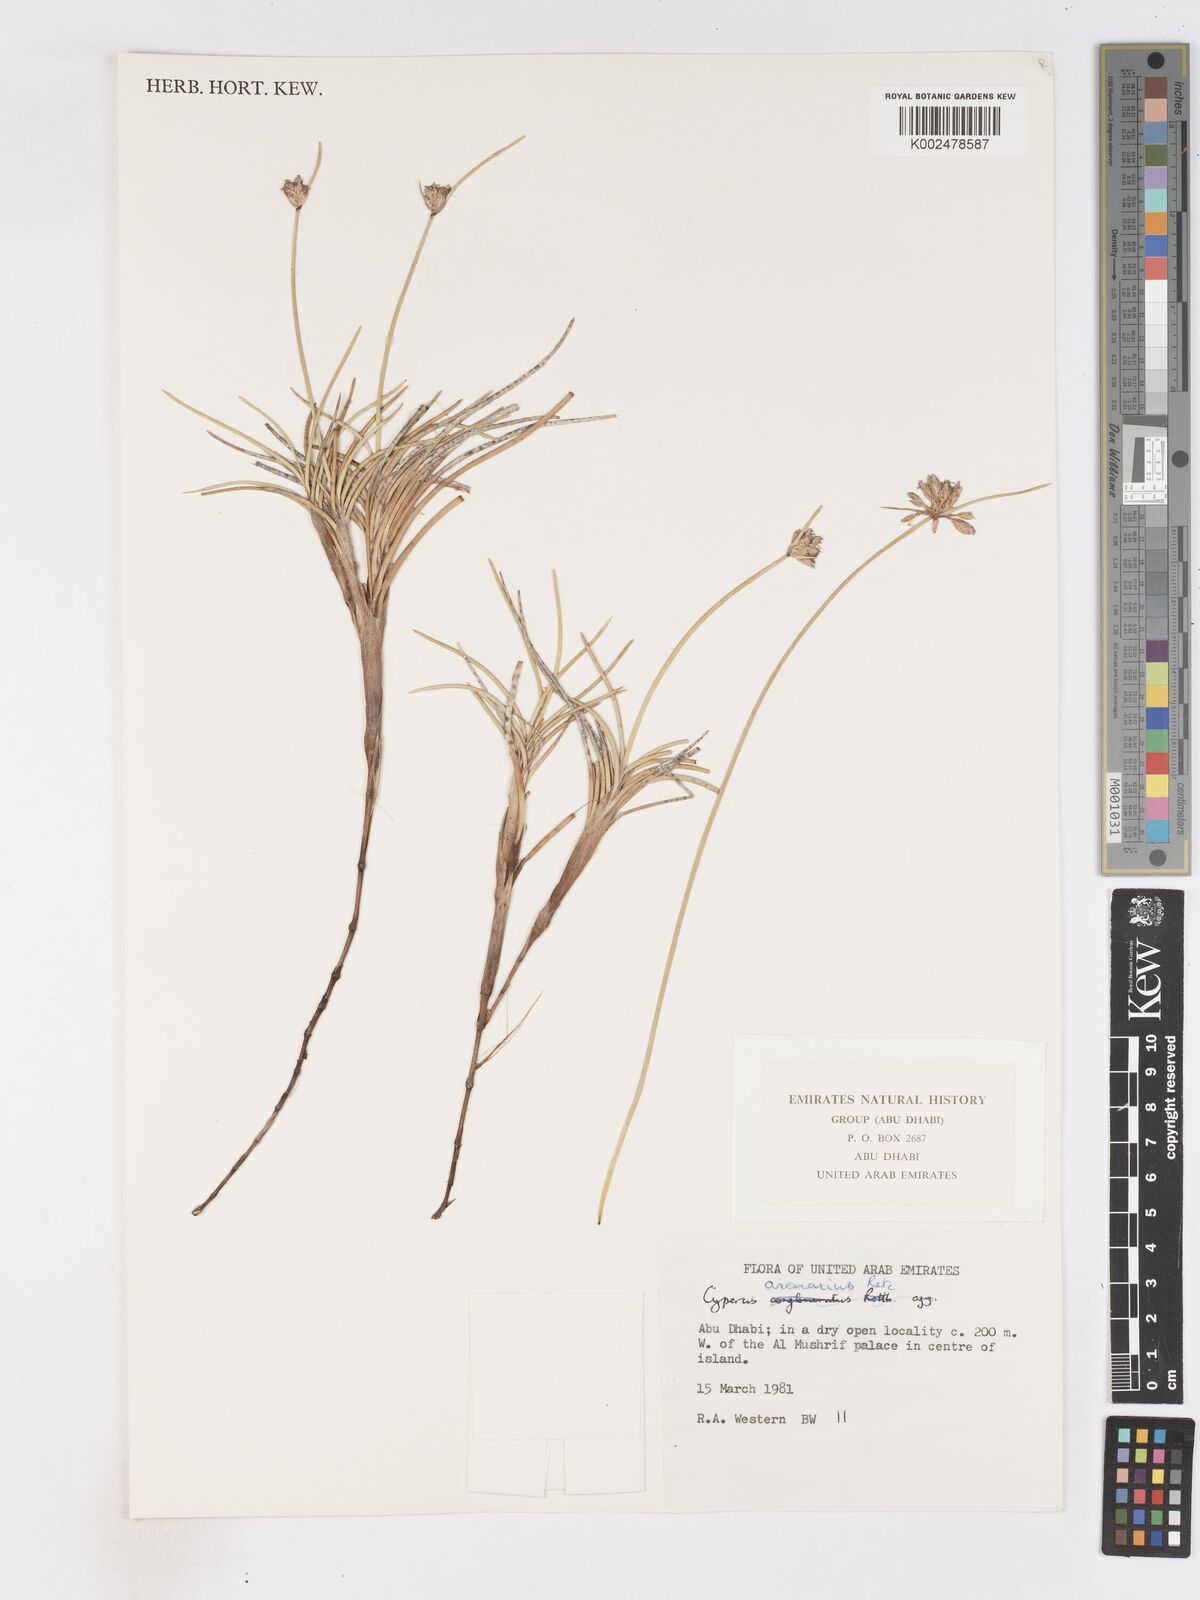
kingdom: Plantae
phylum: Tracheophyta
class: Liliopsida
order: Poales
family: Cyperaceae
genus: Cyperus
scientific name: Cyperus arenarius
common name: Dwarf sedge
